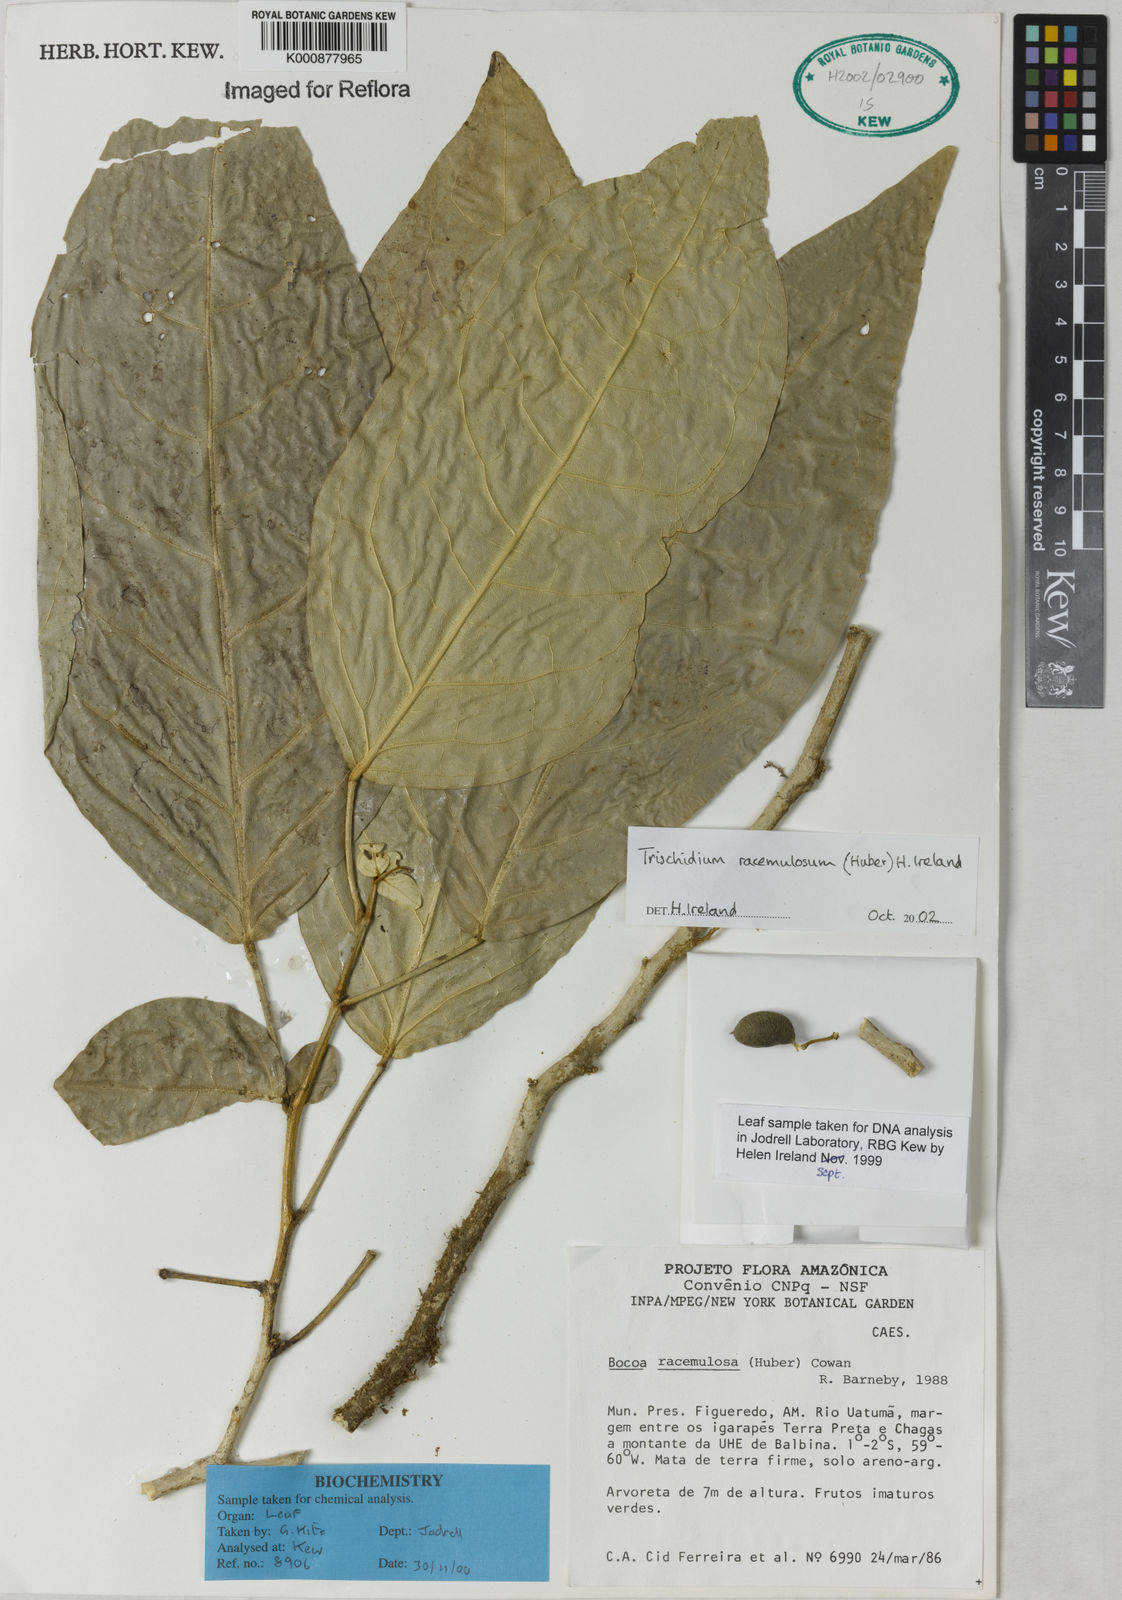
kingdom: Plantae
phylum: Tracheophyta
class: Magnoliopsida
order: Fabales
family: Fabaceae
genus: Trischidium
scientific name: Trischidium racemulosum
